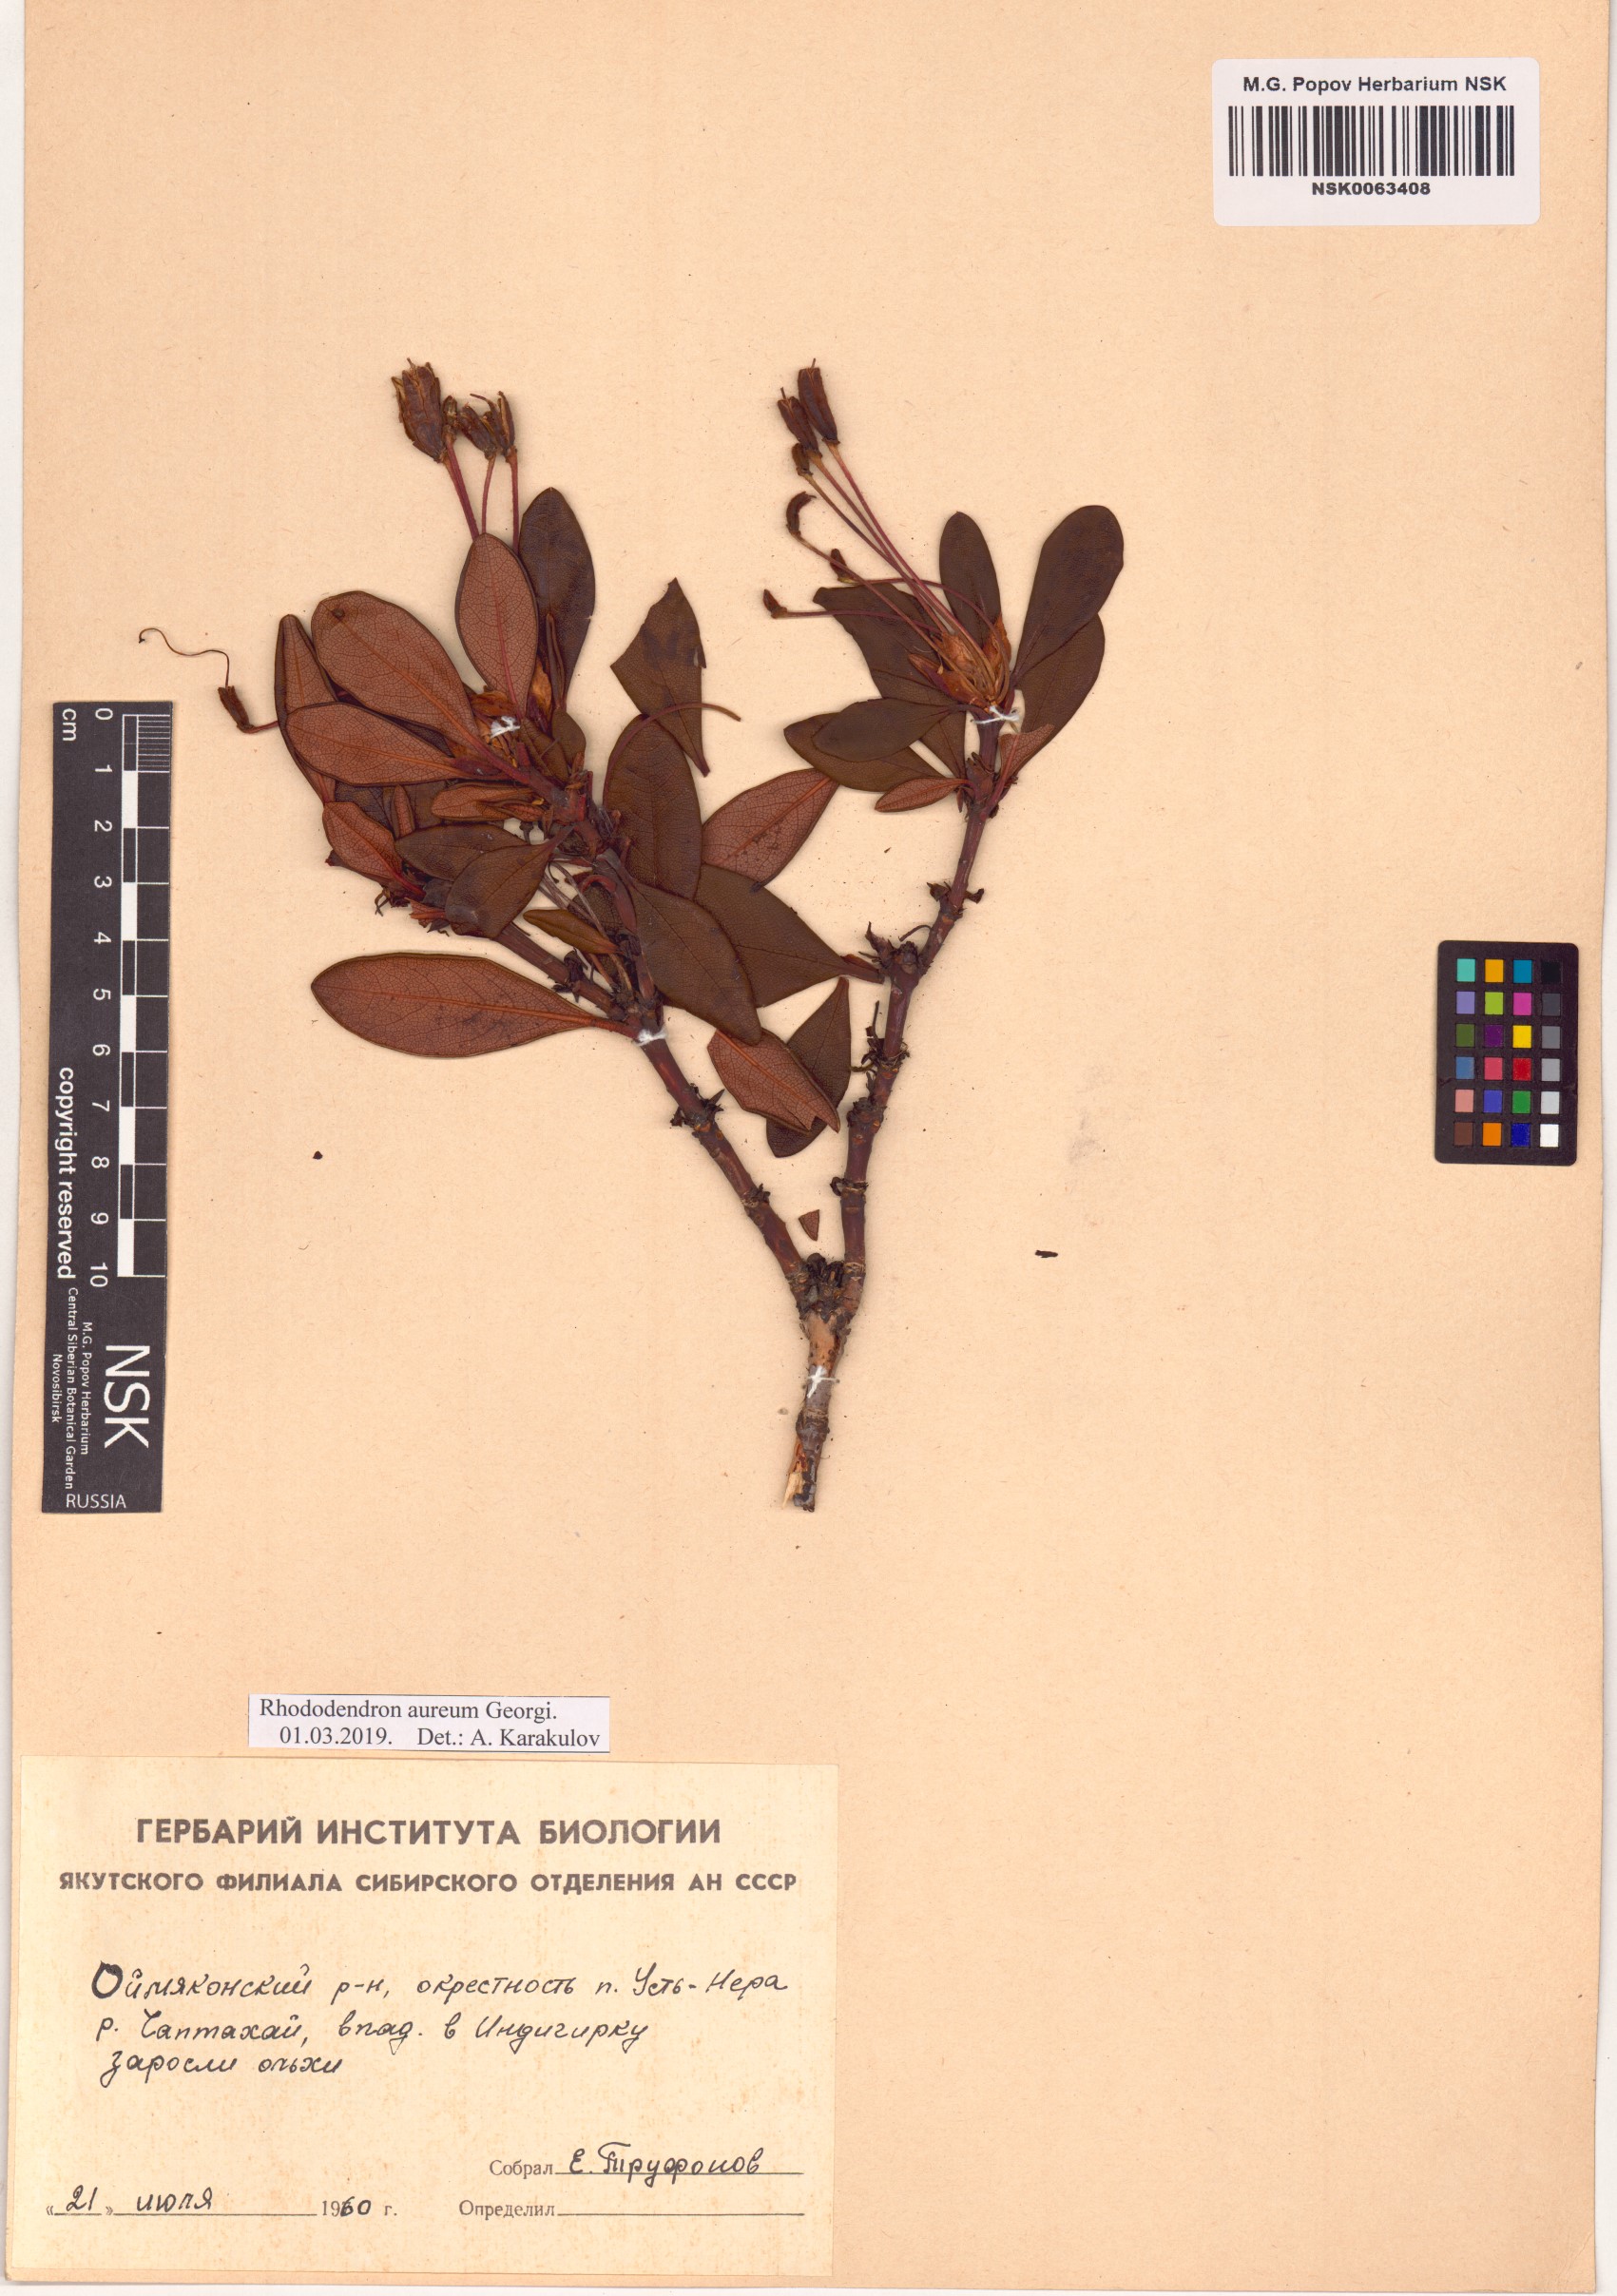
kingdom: Plantae
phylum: Tracheophyta
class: Magnoliopsida
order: Ericales
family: Ericaceae
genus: Rhododendron
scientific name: Rhododendron aureum
